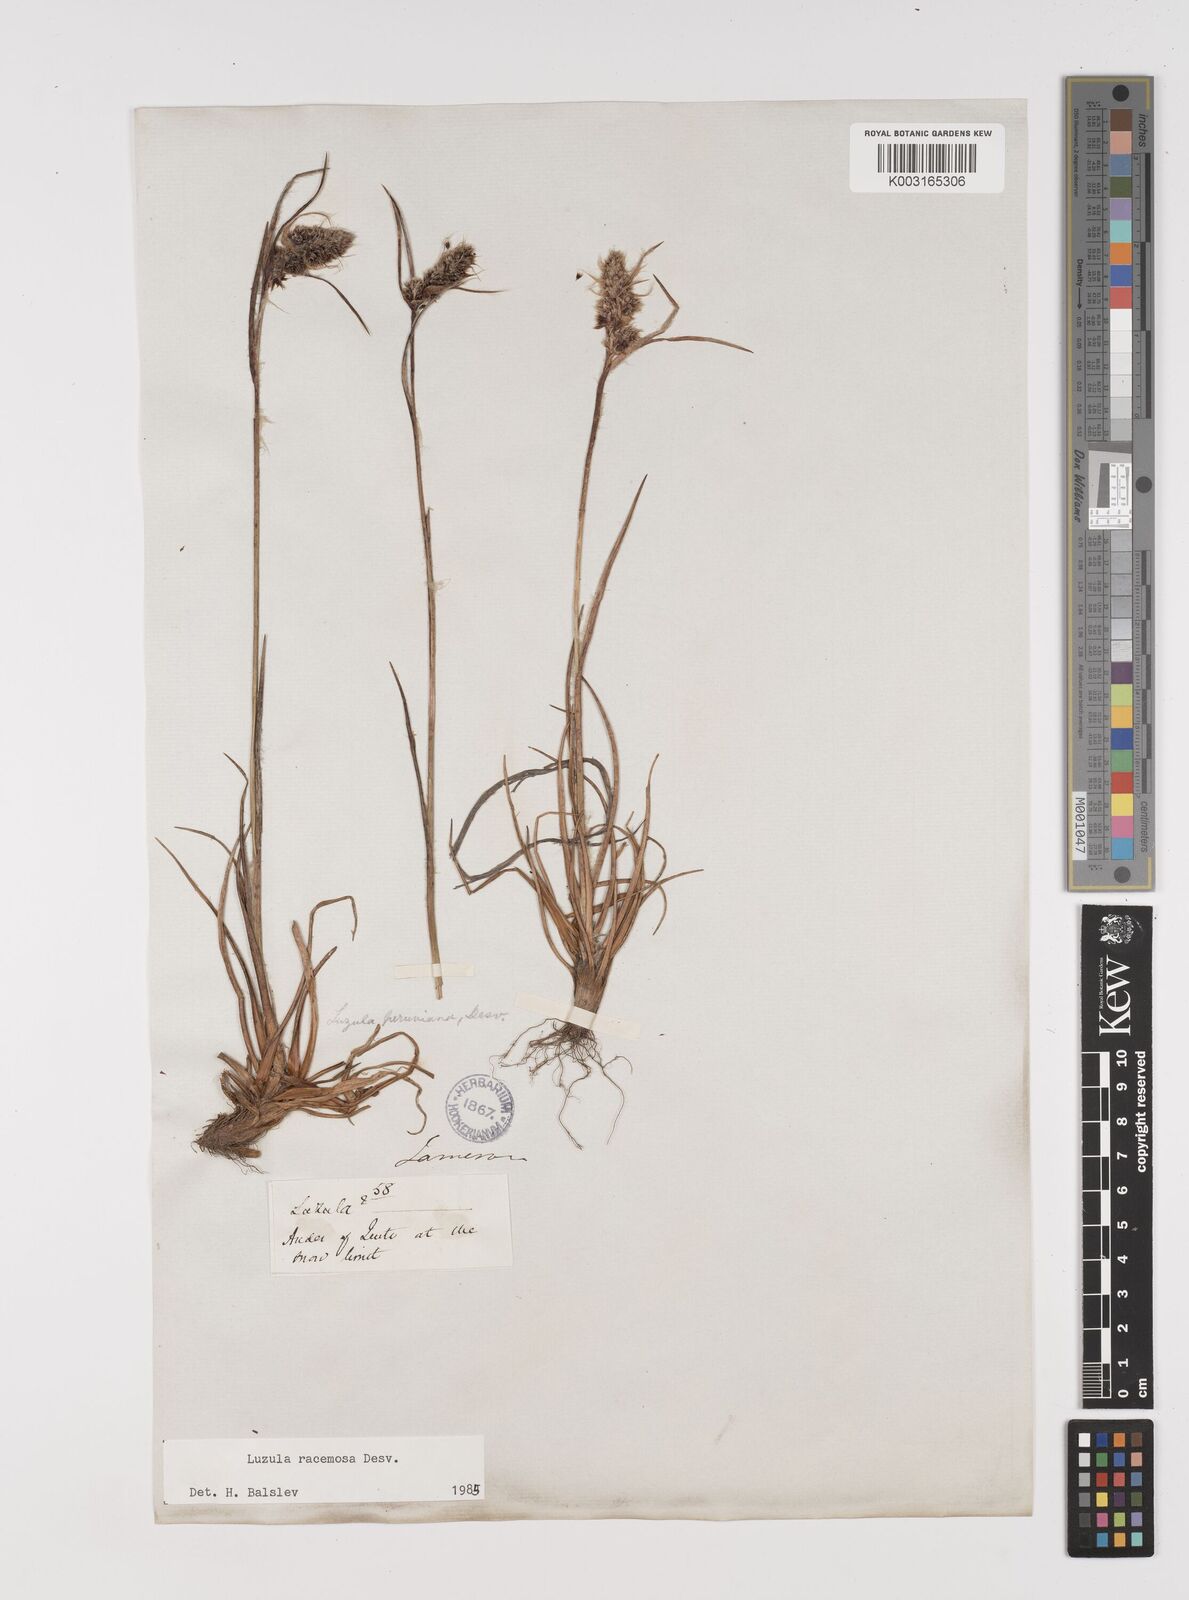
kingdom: Plantae
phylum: Tracheophyta
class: Liliopsida
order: Poales
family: Juncaceae
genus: Luzula
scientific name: Luzula racemosa
